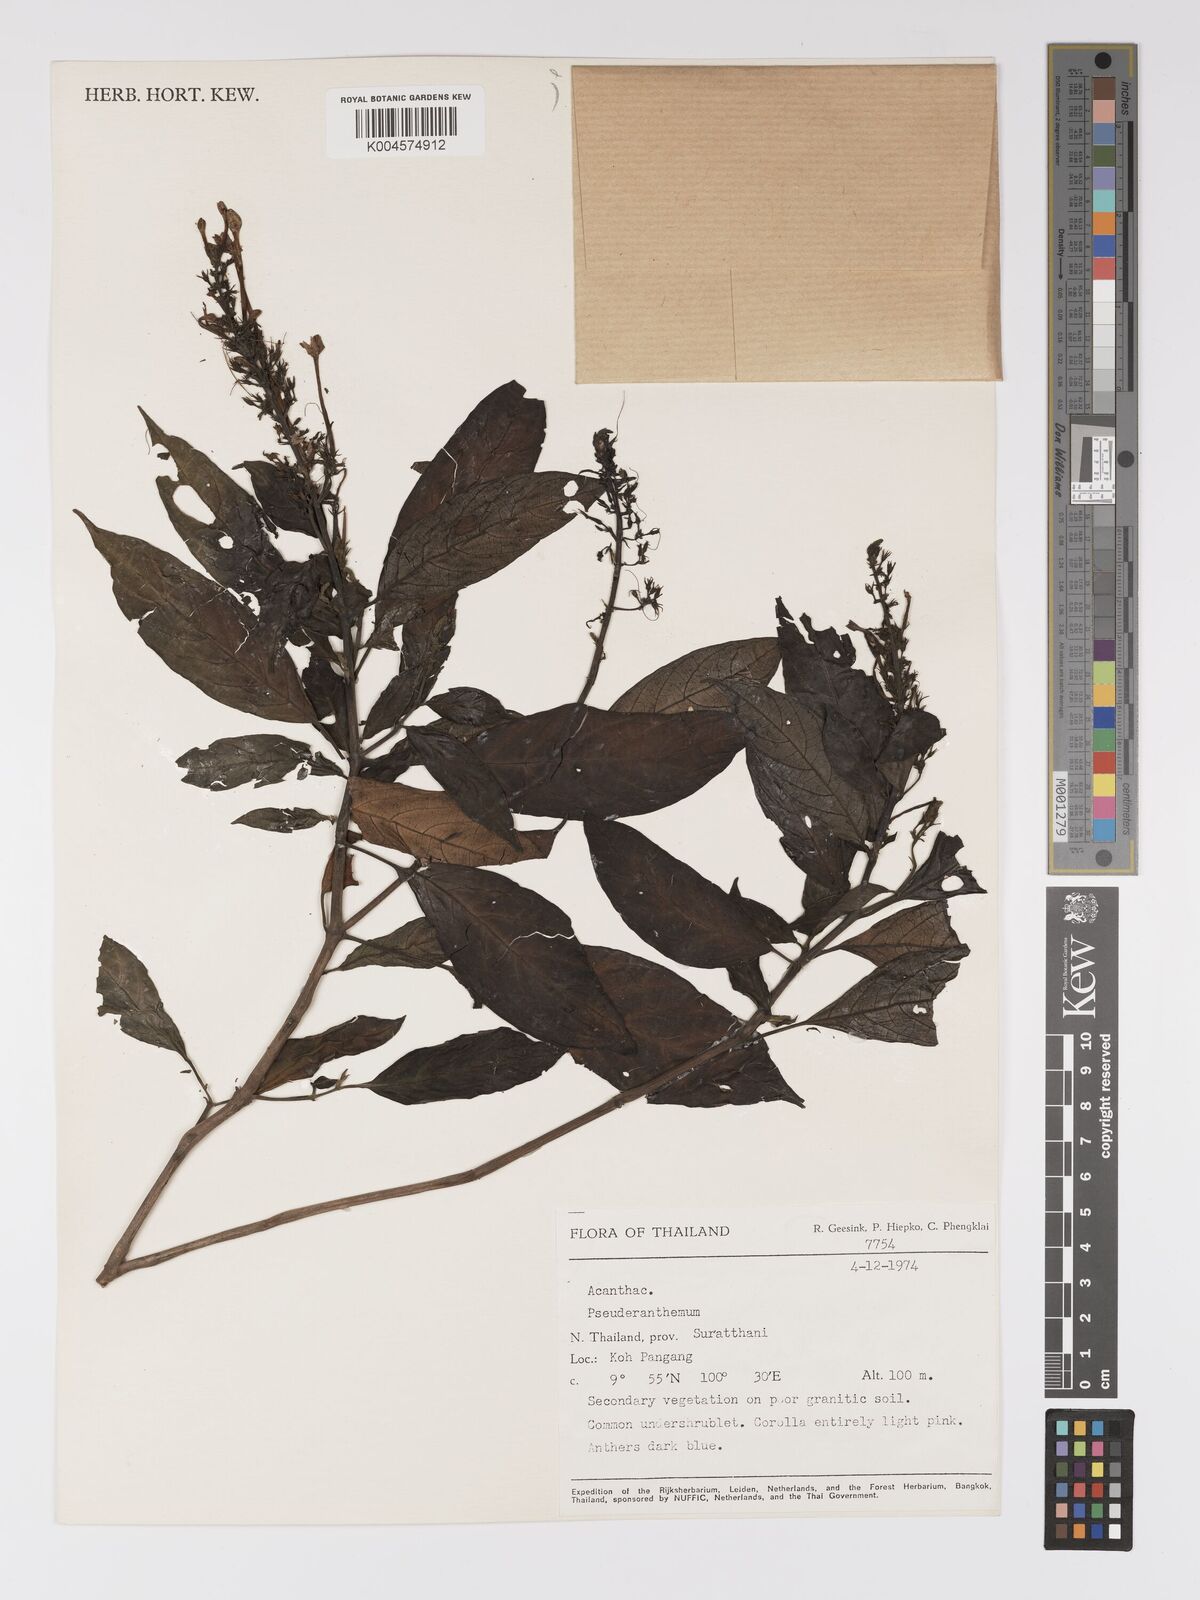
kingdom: Plantae
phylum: Tracheophyta
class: Magnoliopsida
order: Lamiales
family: Acanthaceae
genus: Pseuderanthemum
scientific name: Pseuderanthemum
